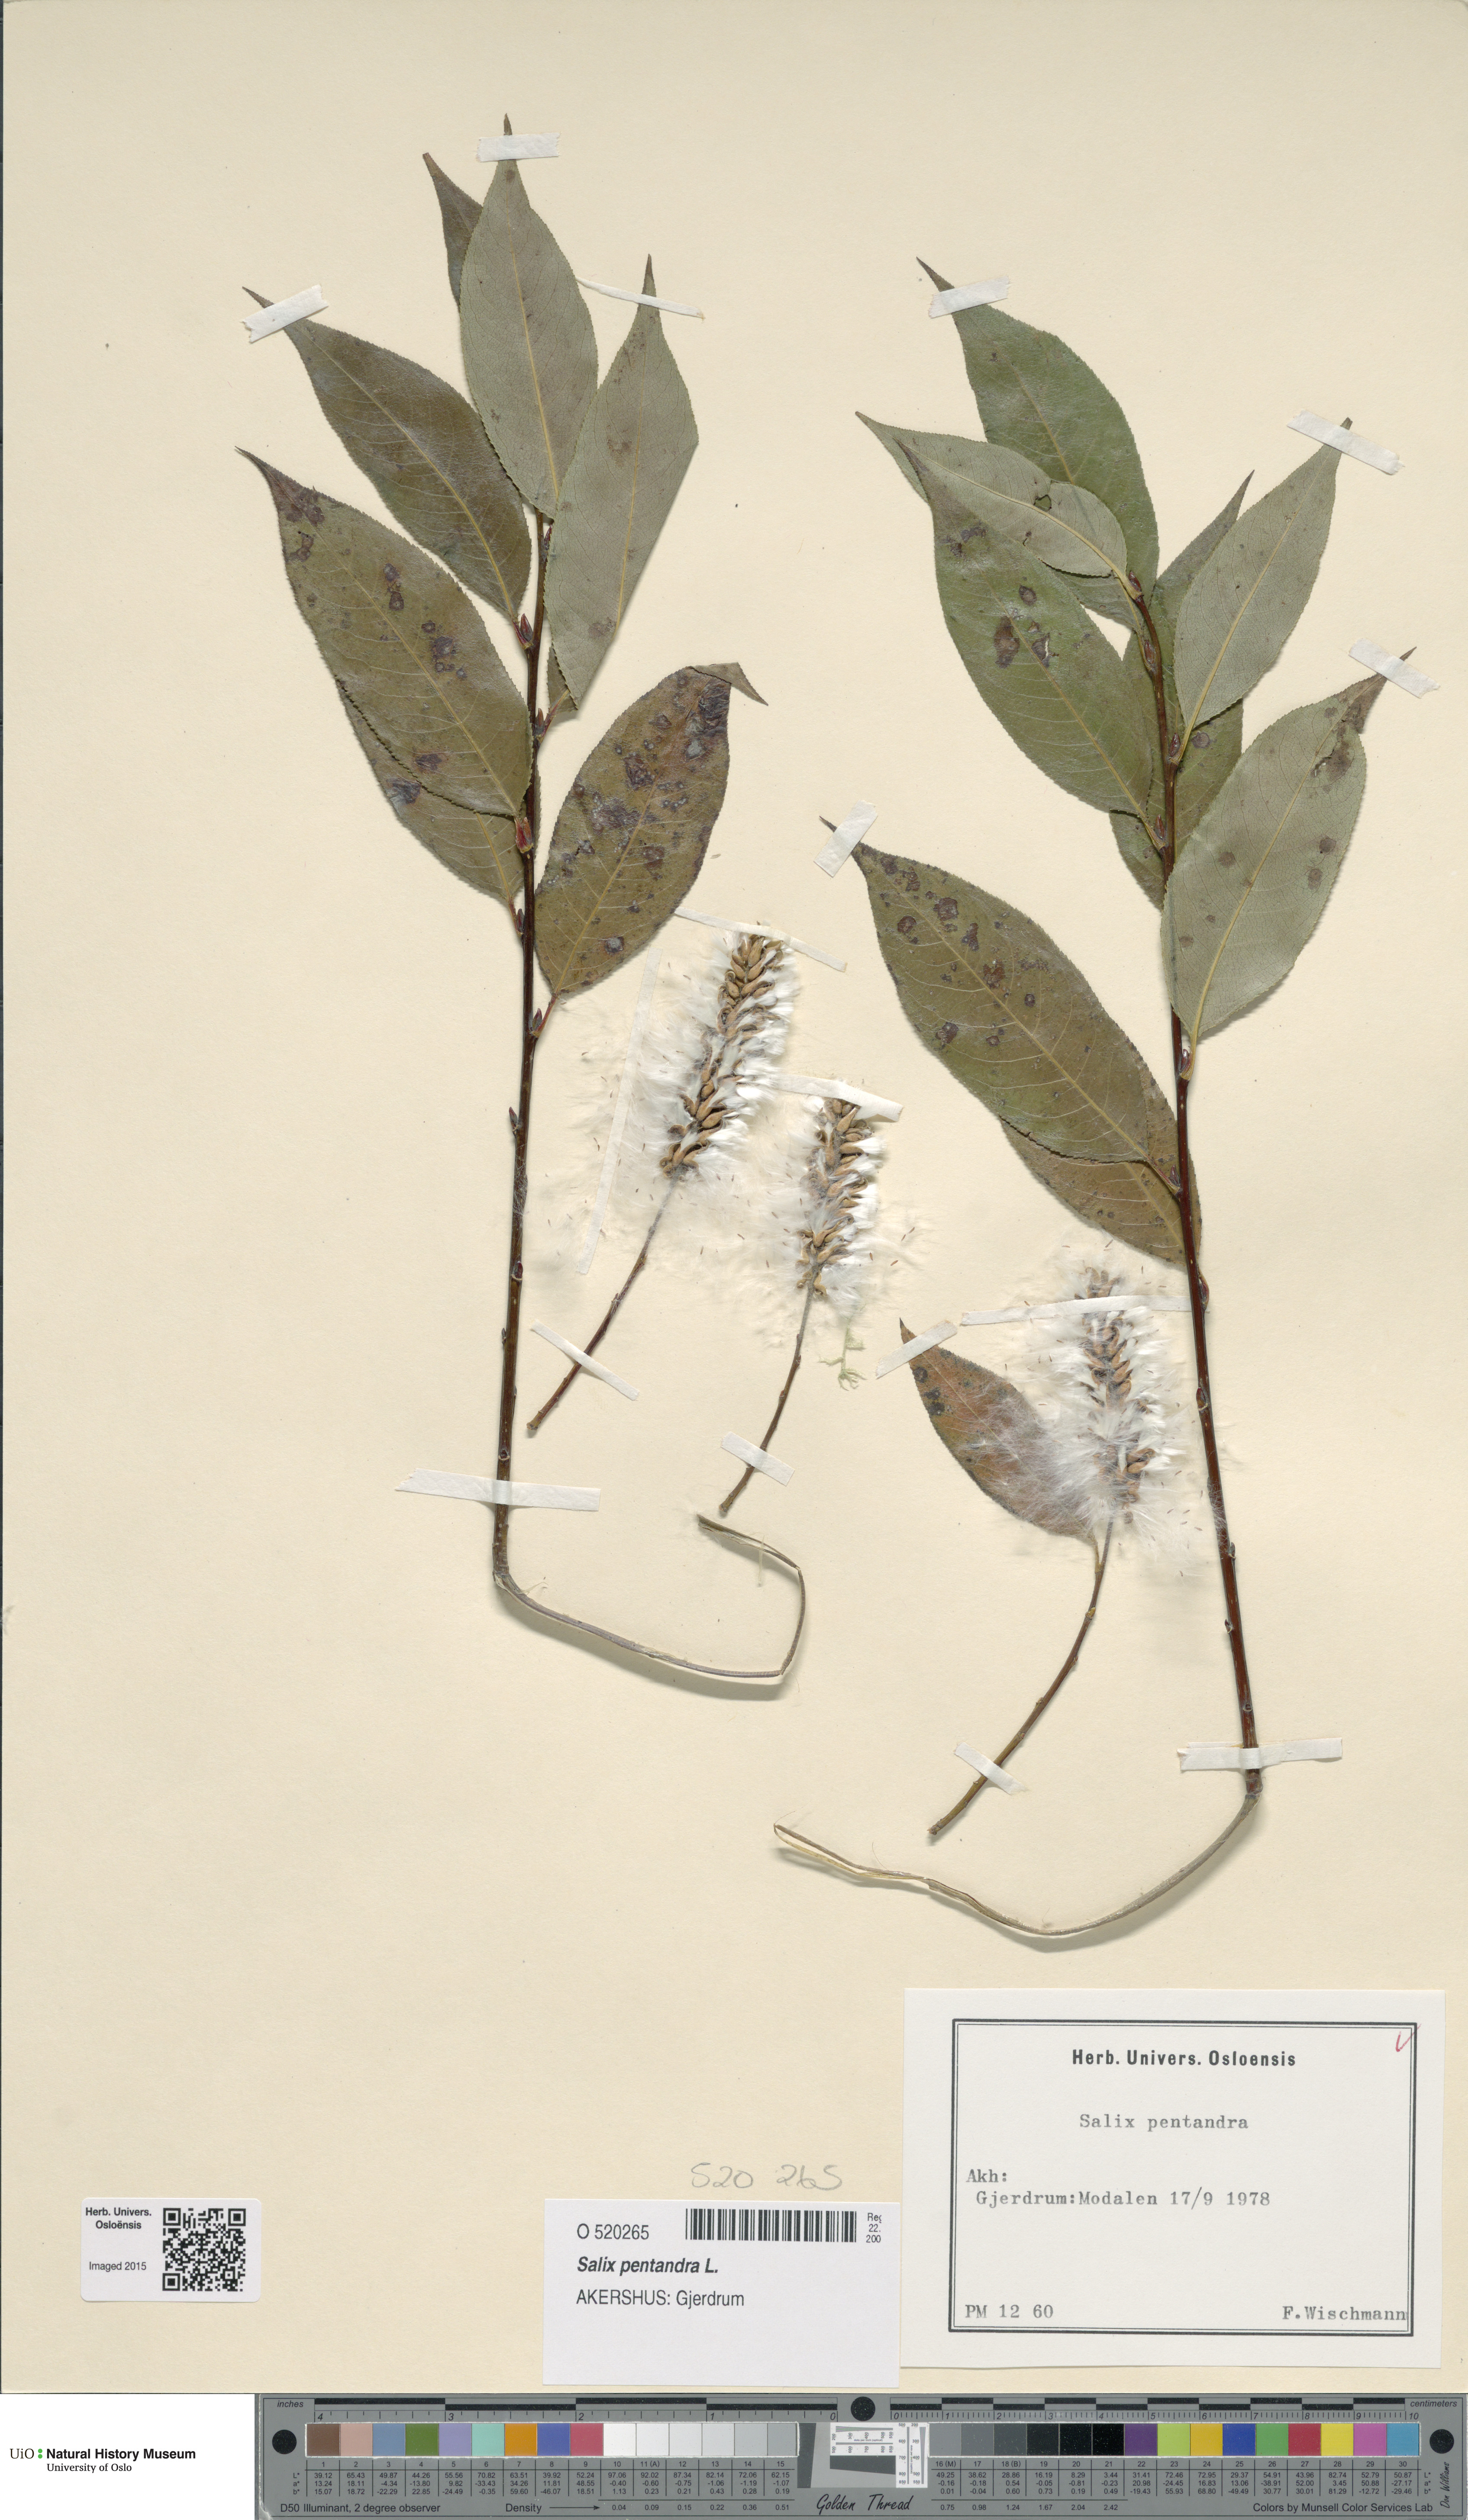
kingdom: Plantae
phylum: Tracheophyta
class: Magnoliopsida
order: Malpighiales
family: Salicaceae
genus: Salix
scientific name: Salix pentandra
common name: Bay willow
